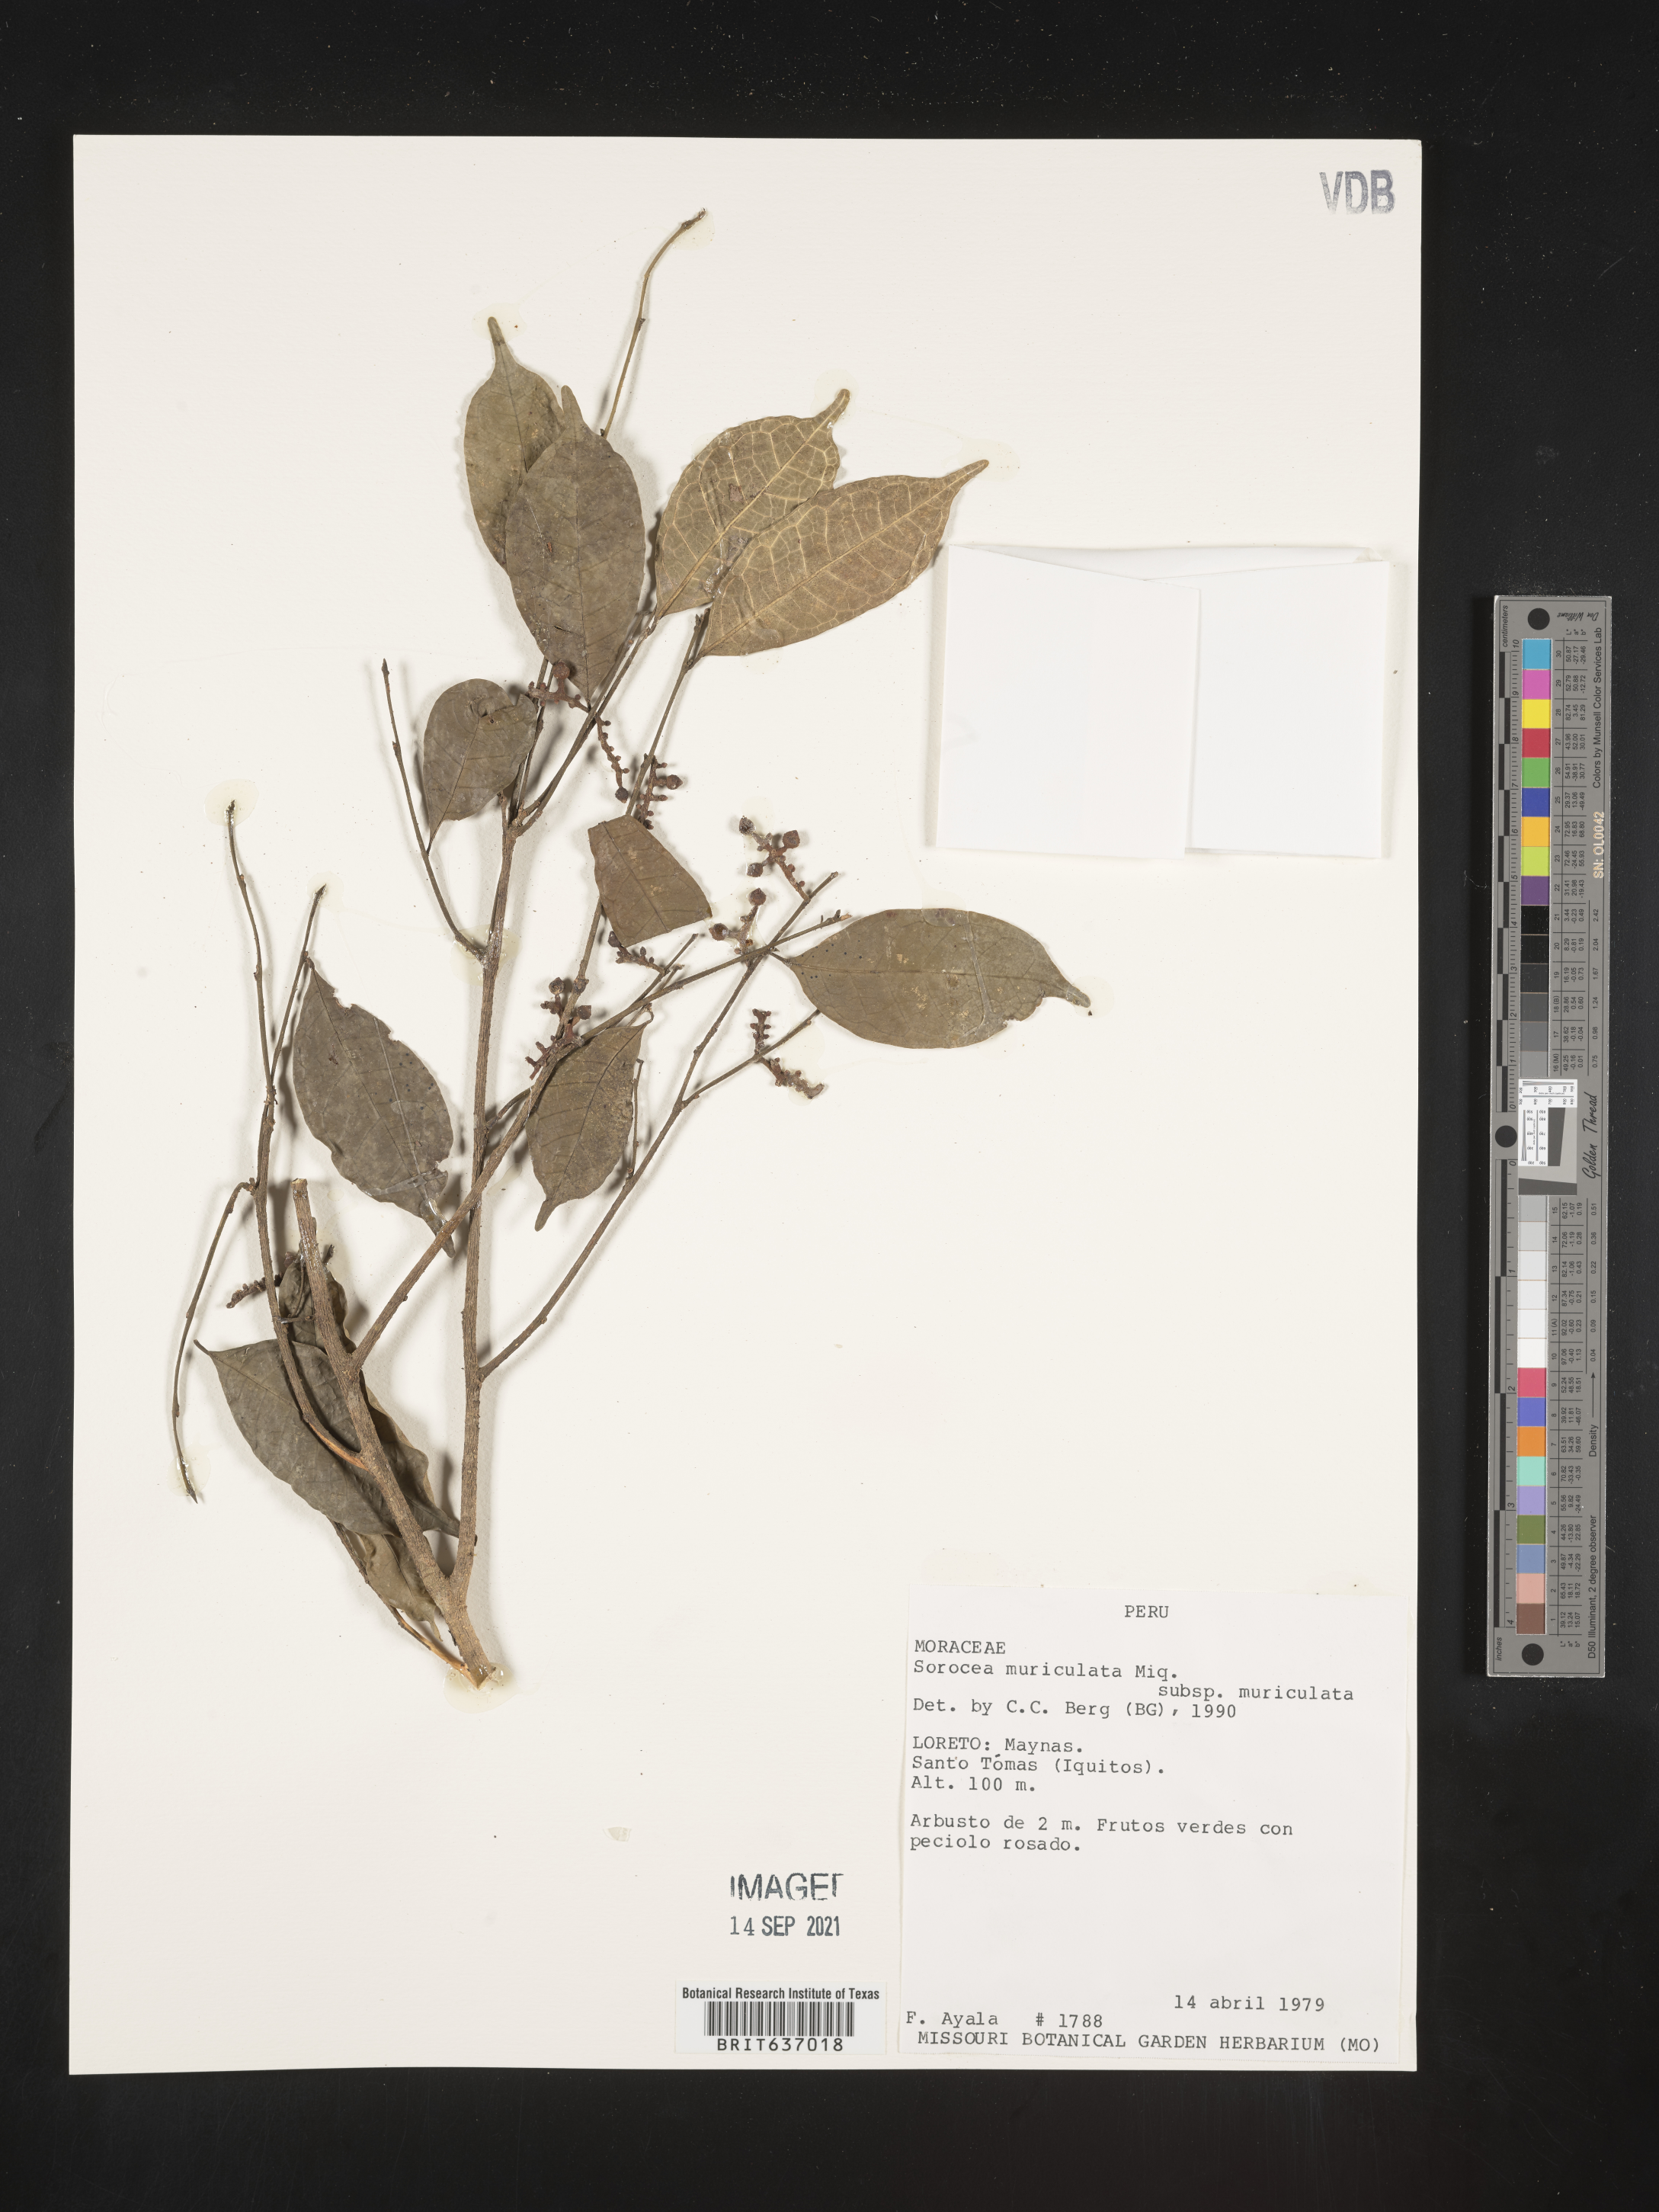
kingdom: Plantae
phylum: Tracheophyta
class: Magnoliopsida
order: Rosales
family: Moraceae
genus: Sorocea
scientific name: Sorocea
